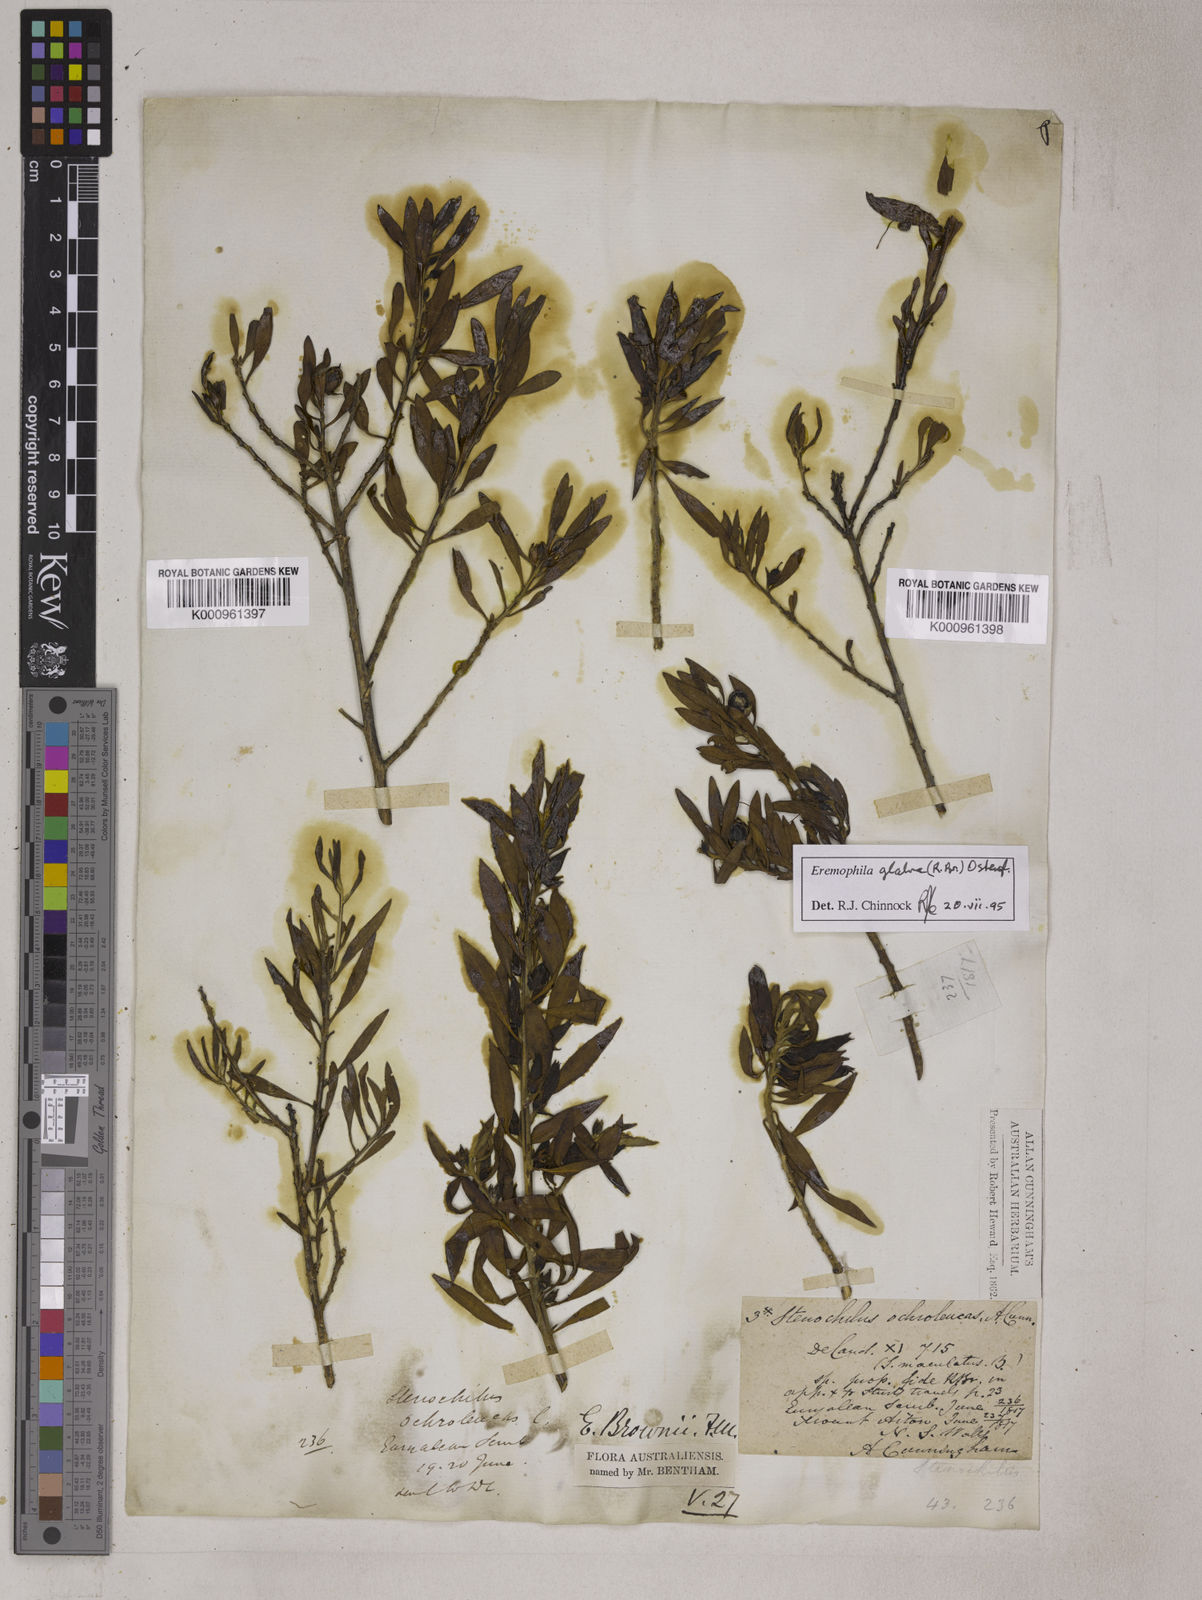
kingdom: Plantae
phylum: Tracheophyta
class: Magnoliopsida
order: Lamiales
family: Scrophulariaceae
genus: Eremophila
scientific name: Eremophila glabra
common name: Black-fuchsia
